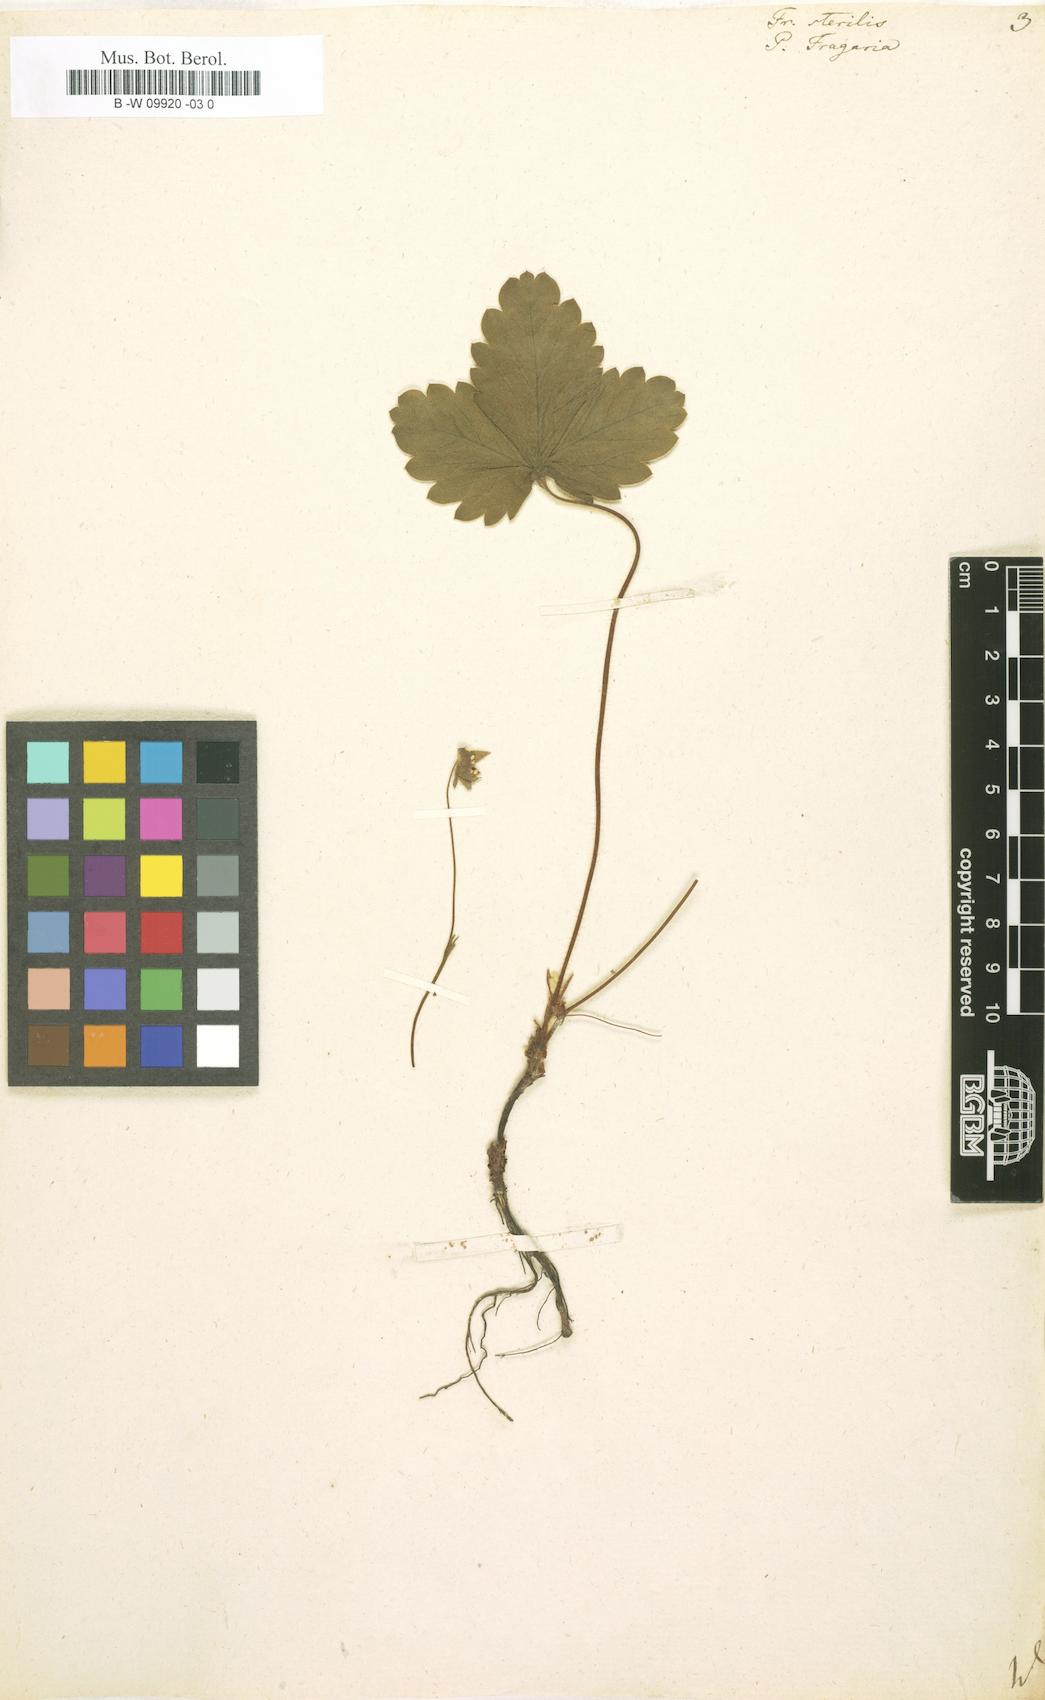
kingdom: Plantae
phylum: Tracheophyta
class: Magnoliopsida
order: Rosales
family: Rosaceae
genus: Potentilla
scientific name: Potentilla sterilis
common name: Barren strawberry
